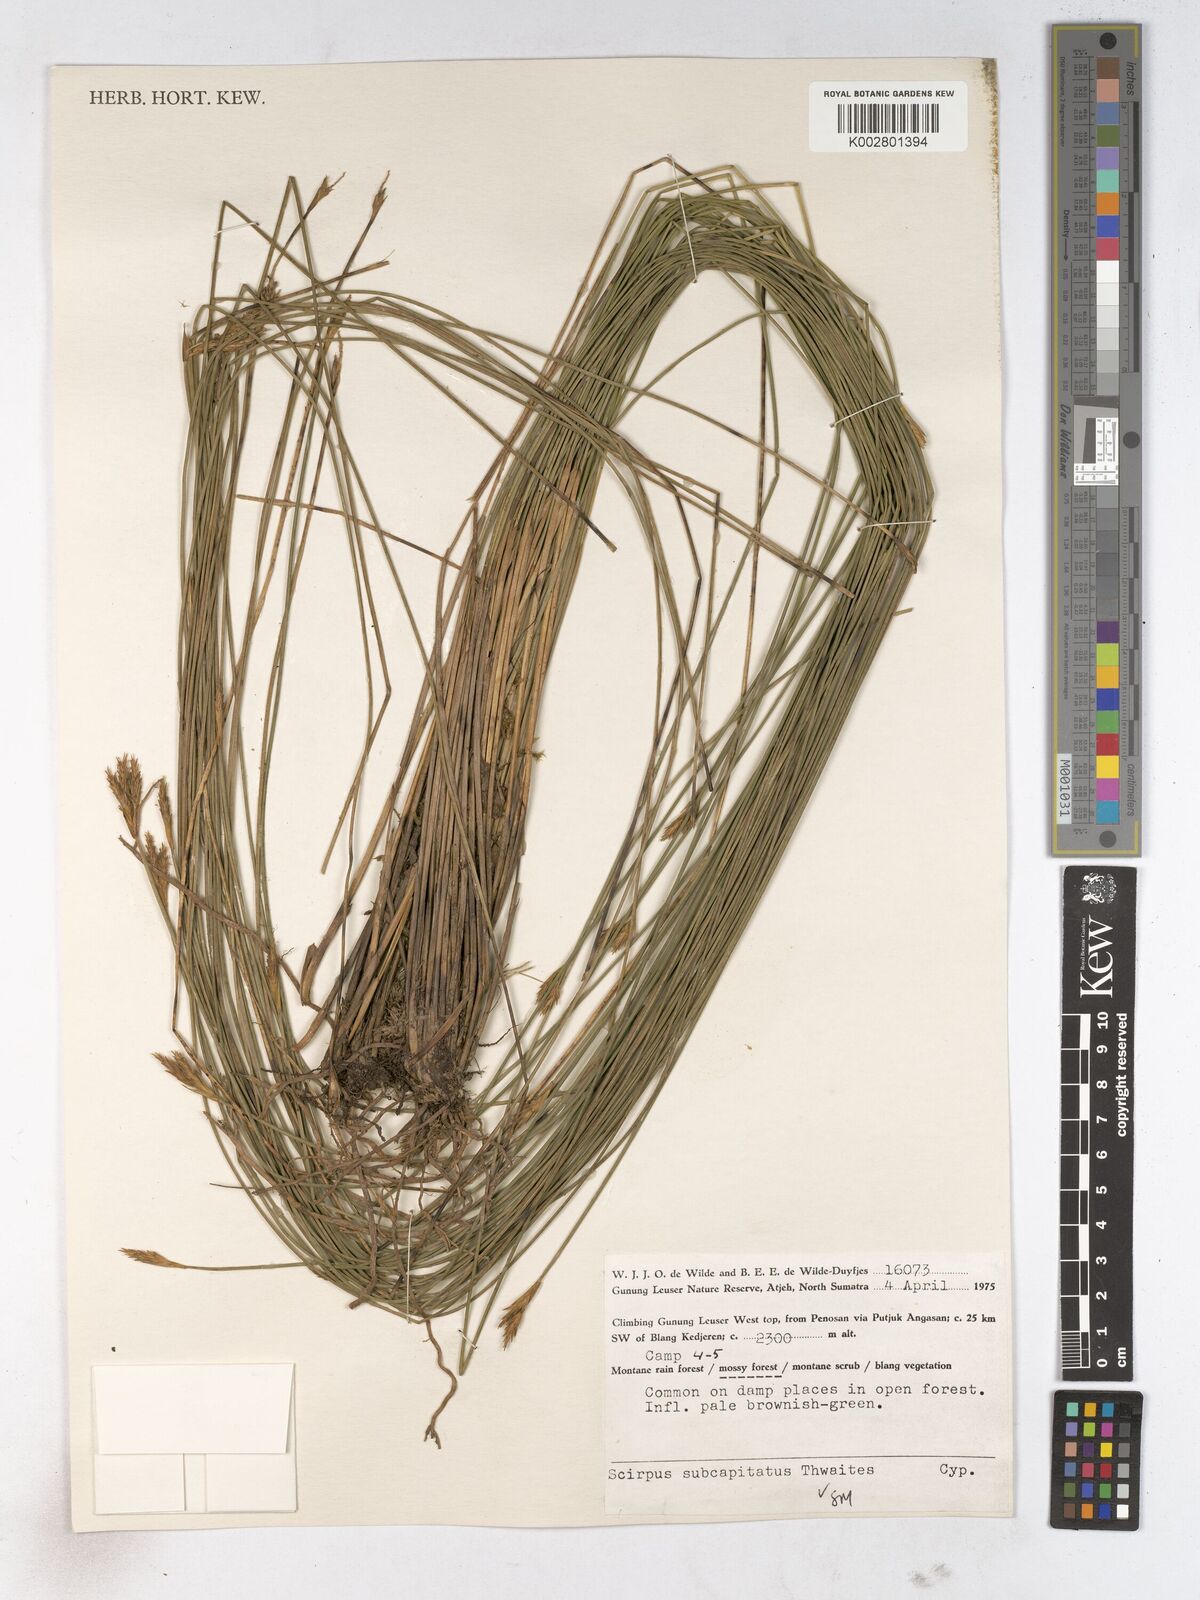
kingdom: Plantae
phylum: Tracheophyta
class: Liliopsida
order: Poales
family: Cyperaceae
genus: Trichophorum
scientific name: Trichophorum subcapitatum
